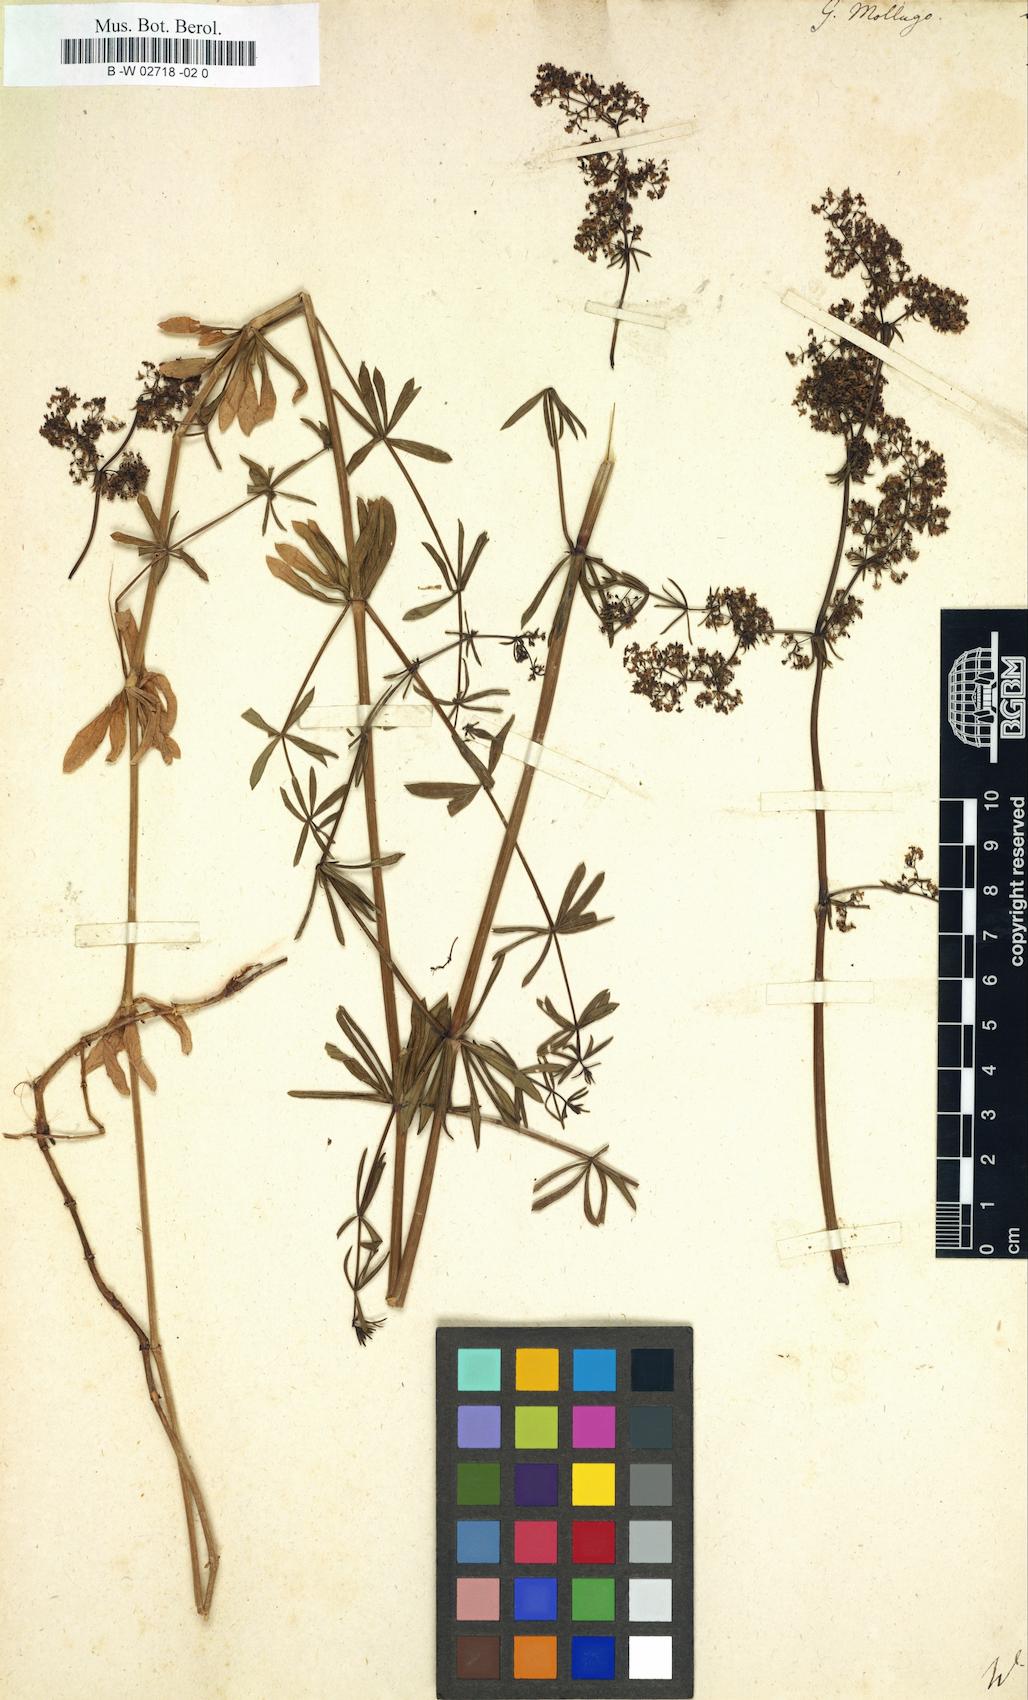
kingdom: Plantae
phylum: Tracheophyta
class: Magnoliopsida
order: Gentianales
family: Rubiaceae
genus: Galium
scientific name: Galium mollugo
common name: Hedge bedstraw
